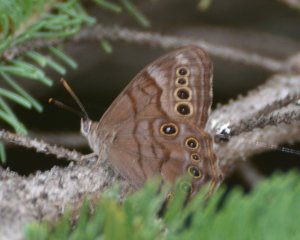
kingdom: Animalia
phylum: Arthropoda
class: Insecta
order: Lepidoptera
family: Nymphalidae
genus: Lethe
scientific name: Lethe anthedon
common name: Northern Pearly-Eye
